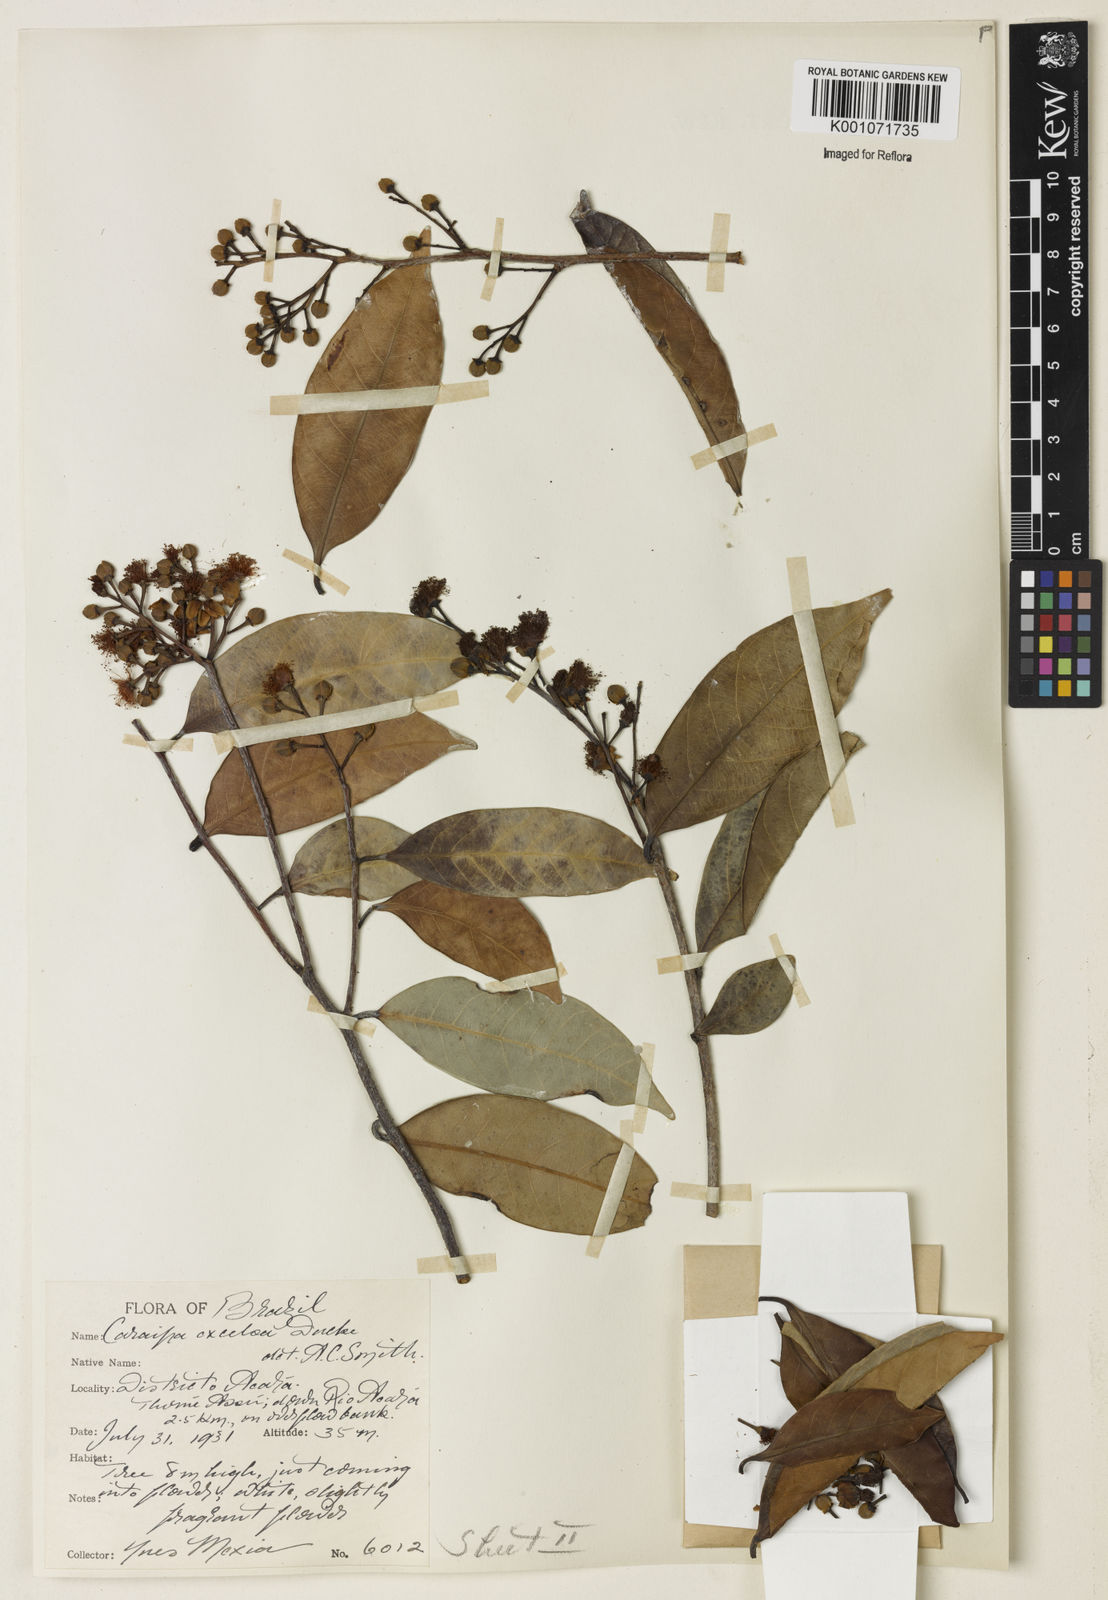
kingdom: Plantae
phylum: Tracheophyta
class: Magnoliopsida
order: Malpighiales
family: Calophyllaceae
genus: Caraipa
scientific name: Caraipa densifolia
